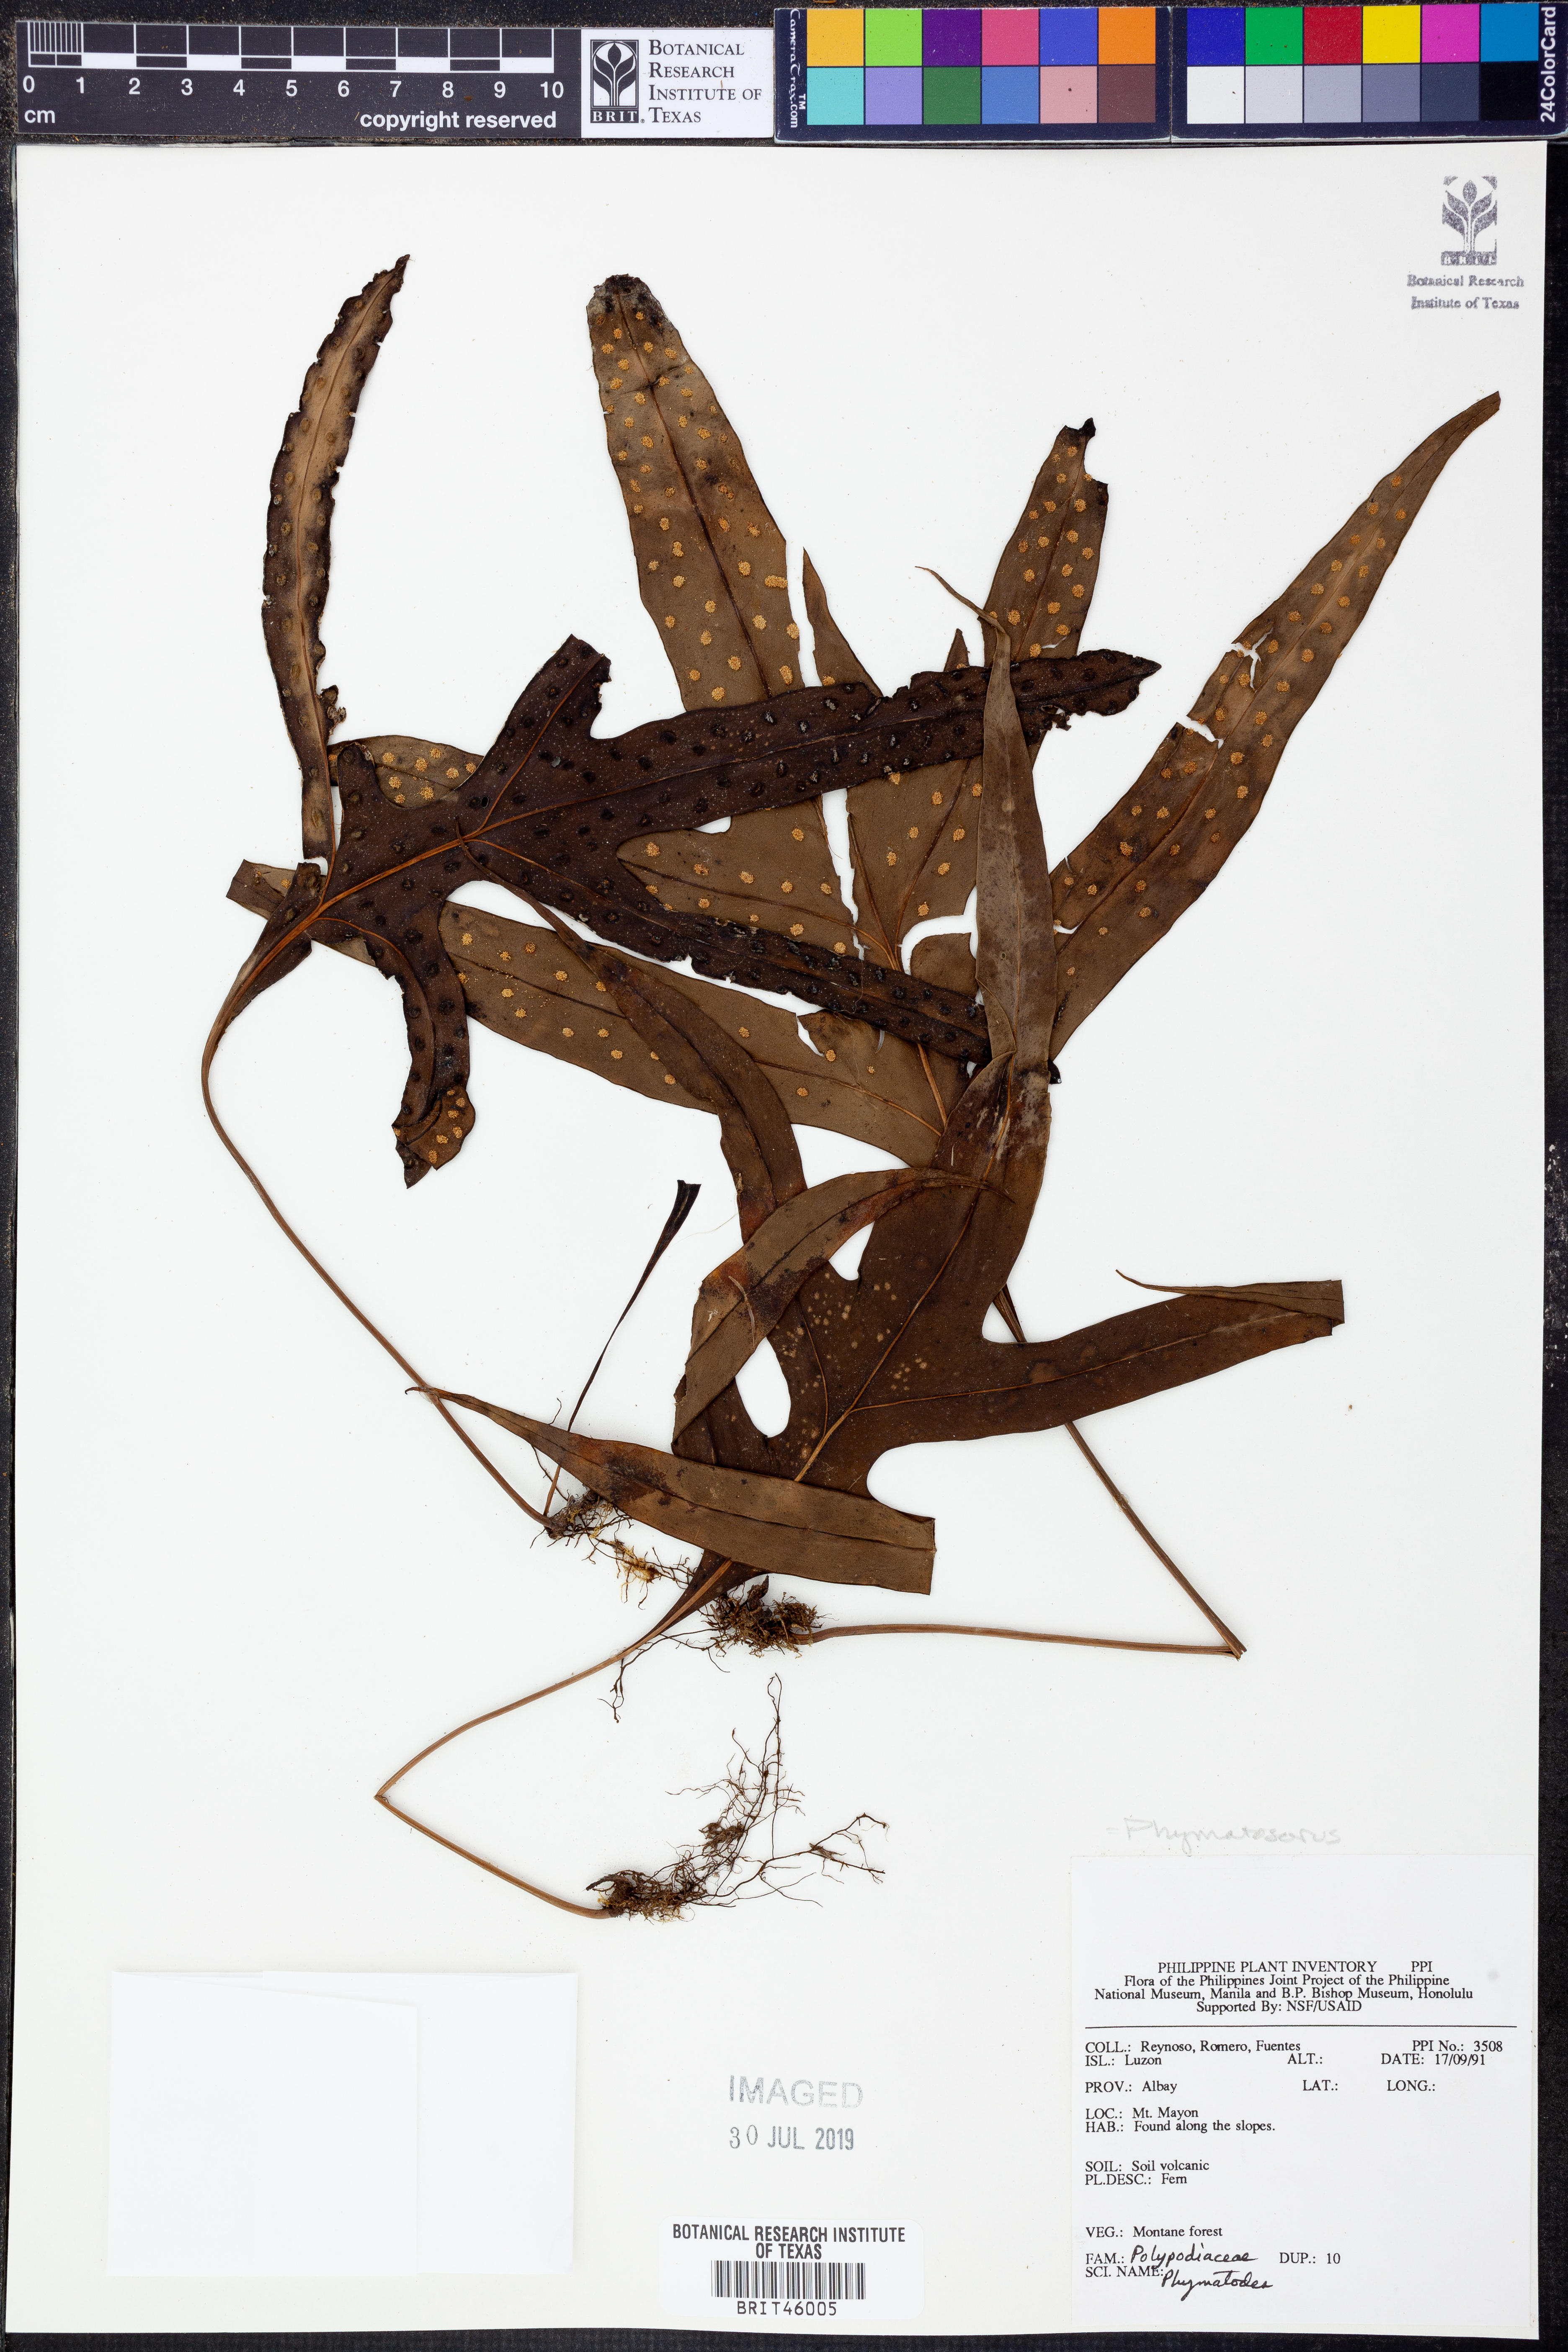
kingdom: Plantae
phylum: Tracheophyta
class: Polypodiopsida
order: Polypodiales
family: Polypodiaceae
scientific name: Polypodiaceae
